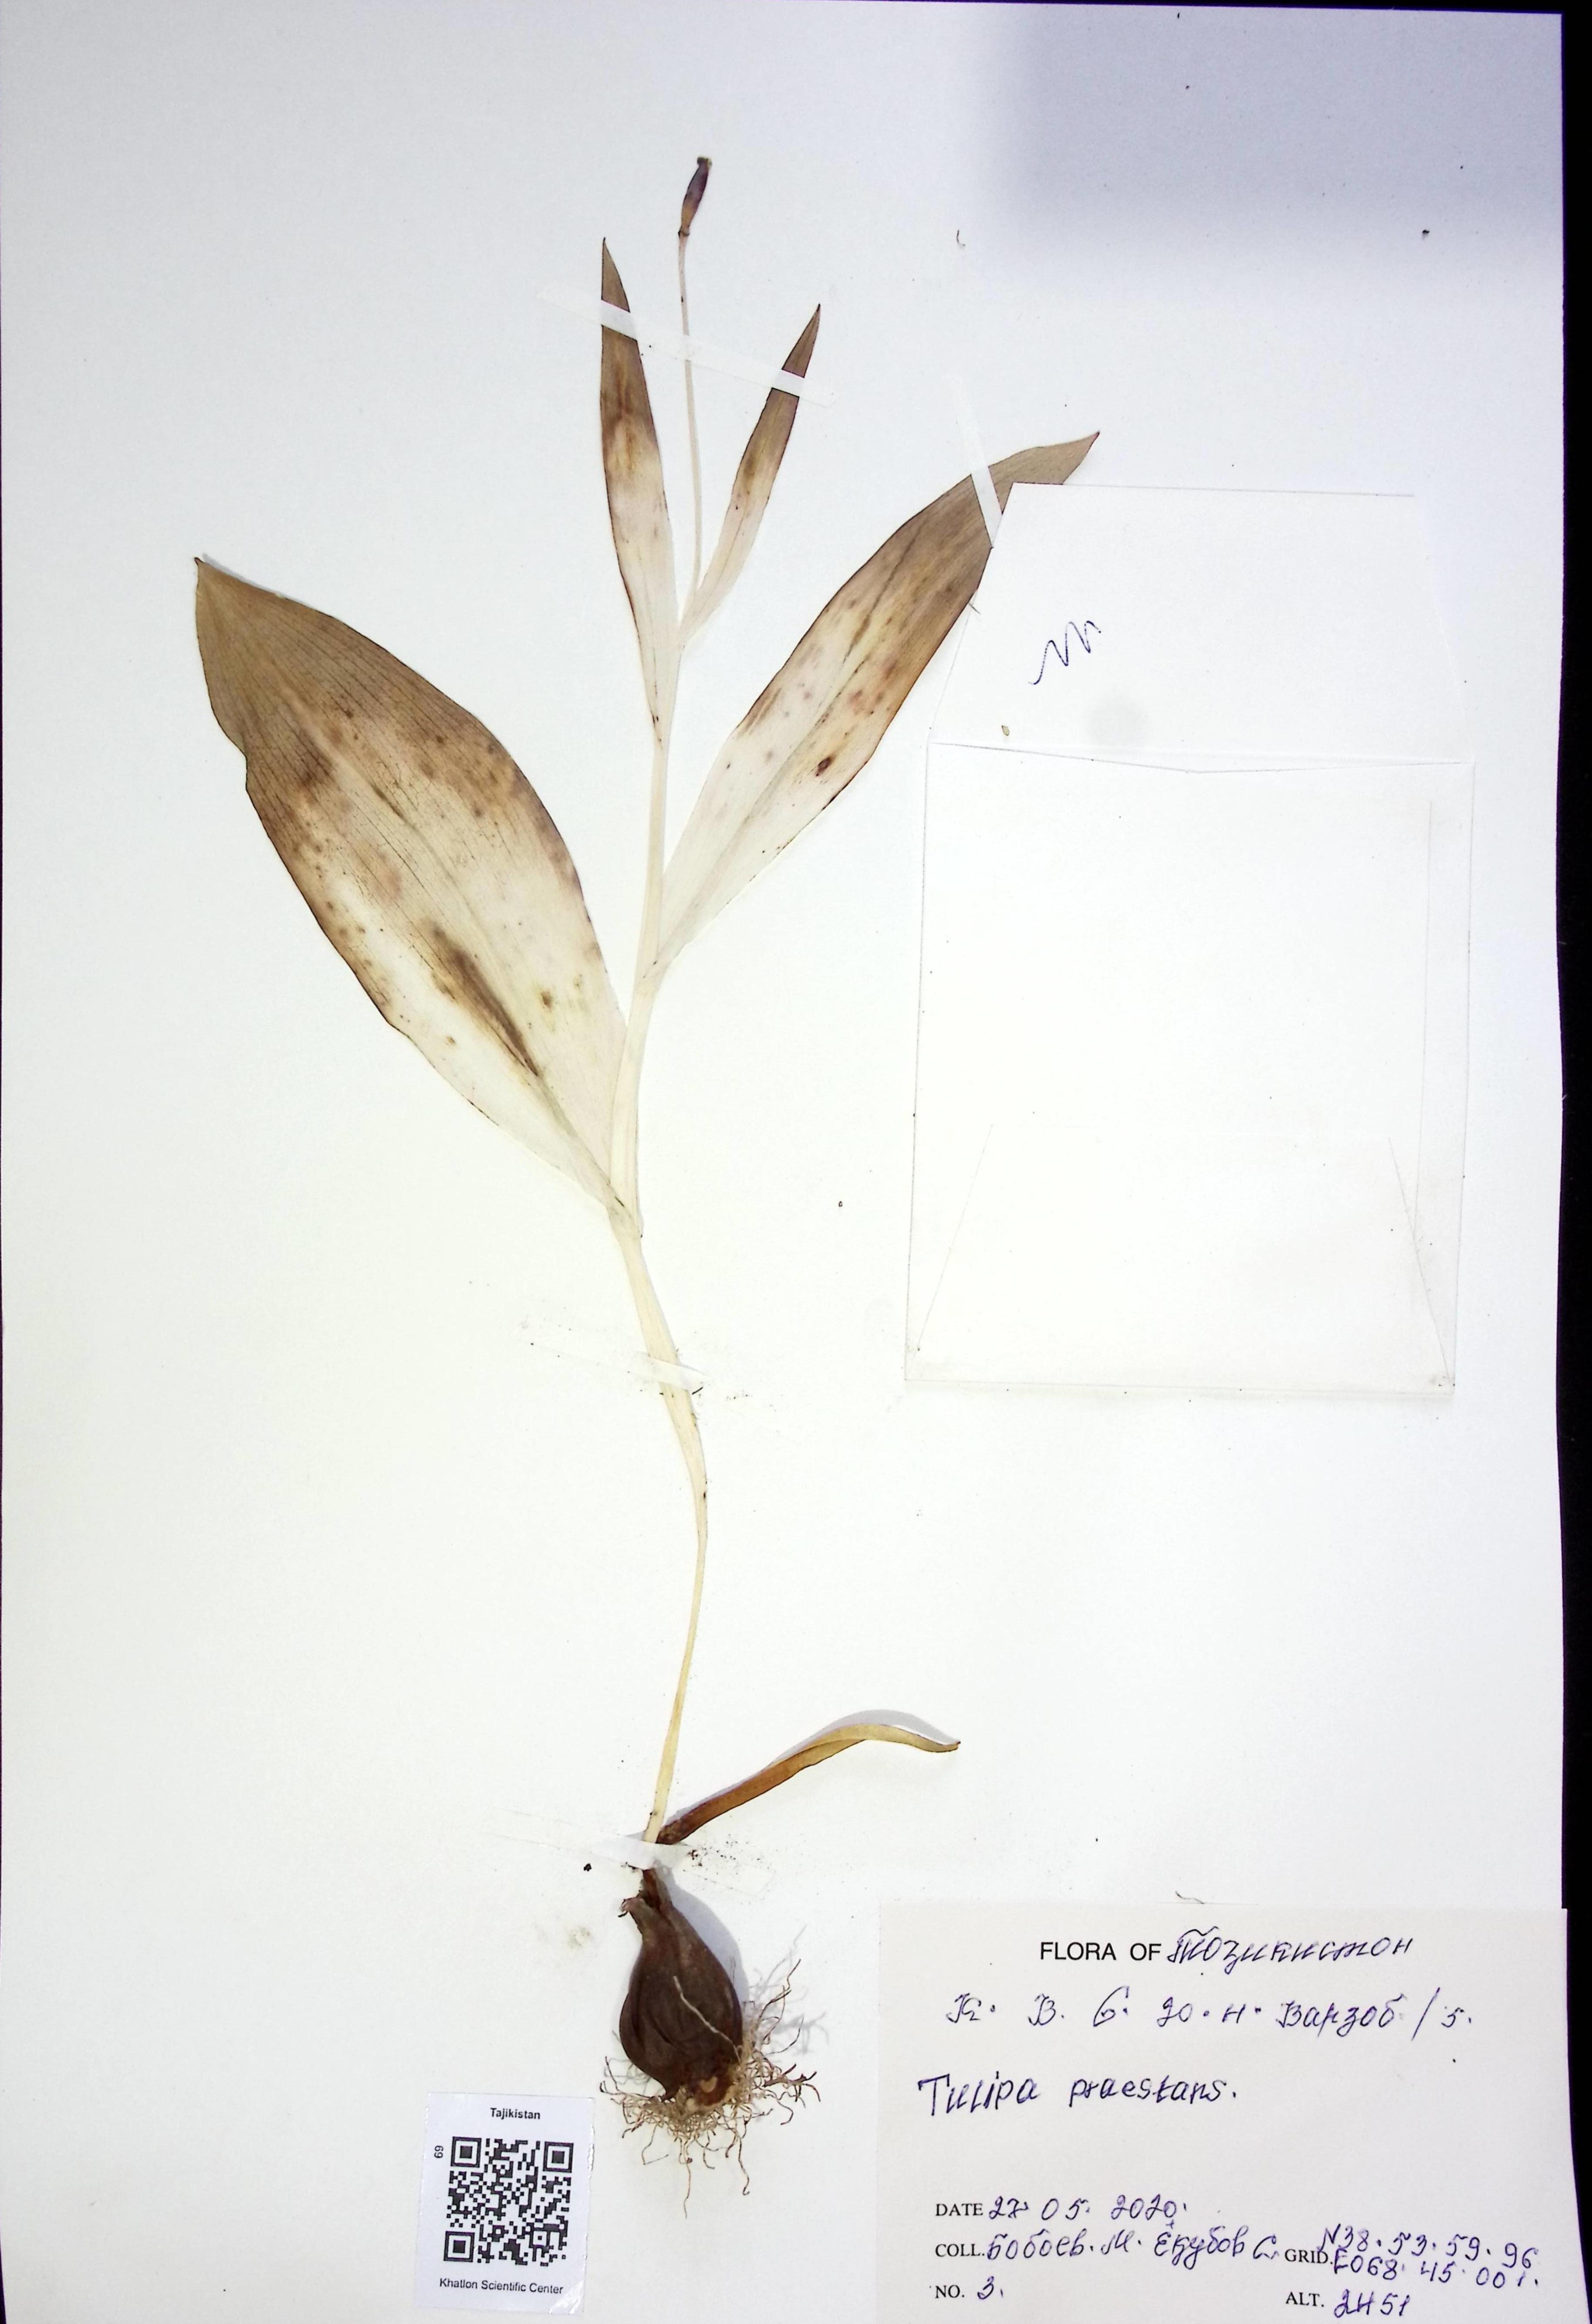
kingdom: Plantae
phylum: Tracheophyta
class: Liliopsida
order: Liliales
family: Liliaceae
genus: Tulipa
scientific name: Tulipa praestans
